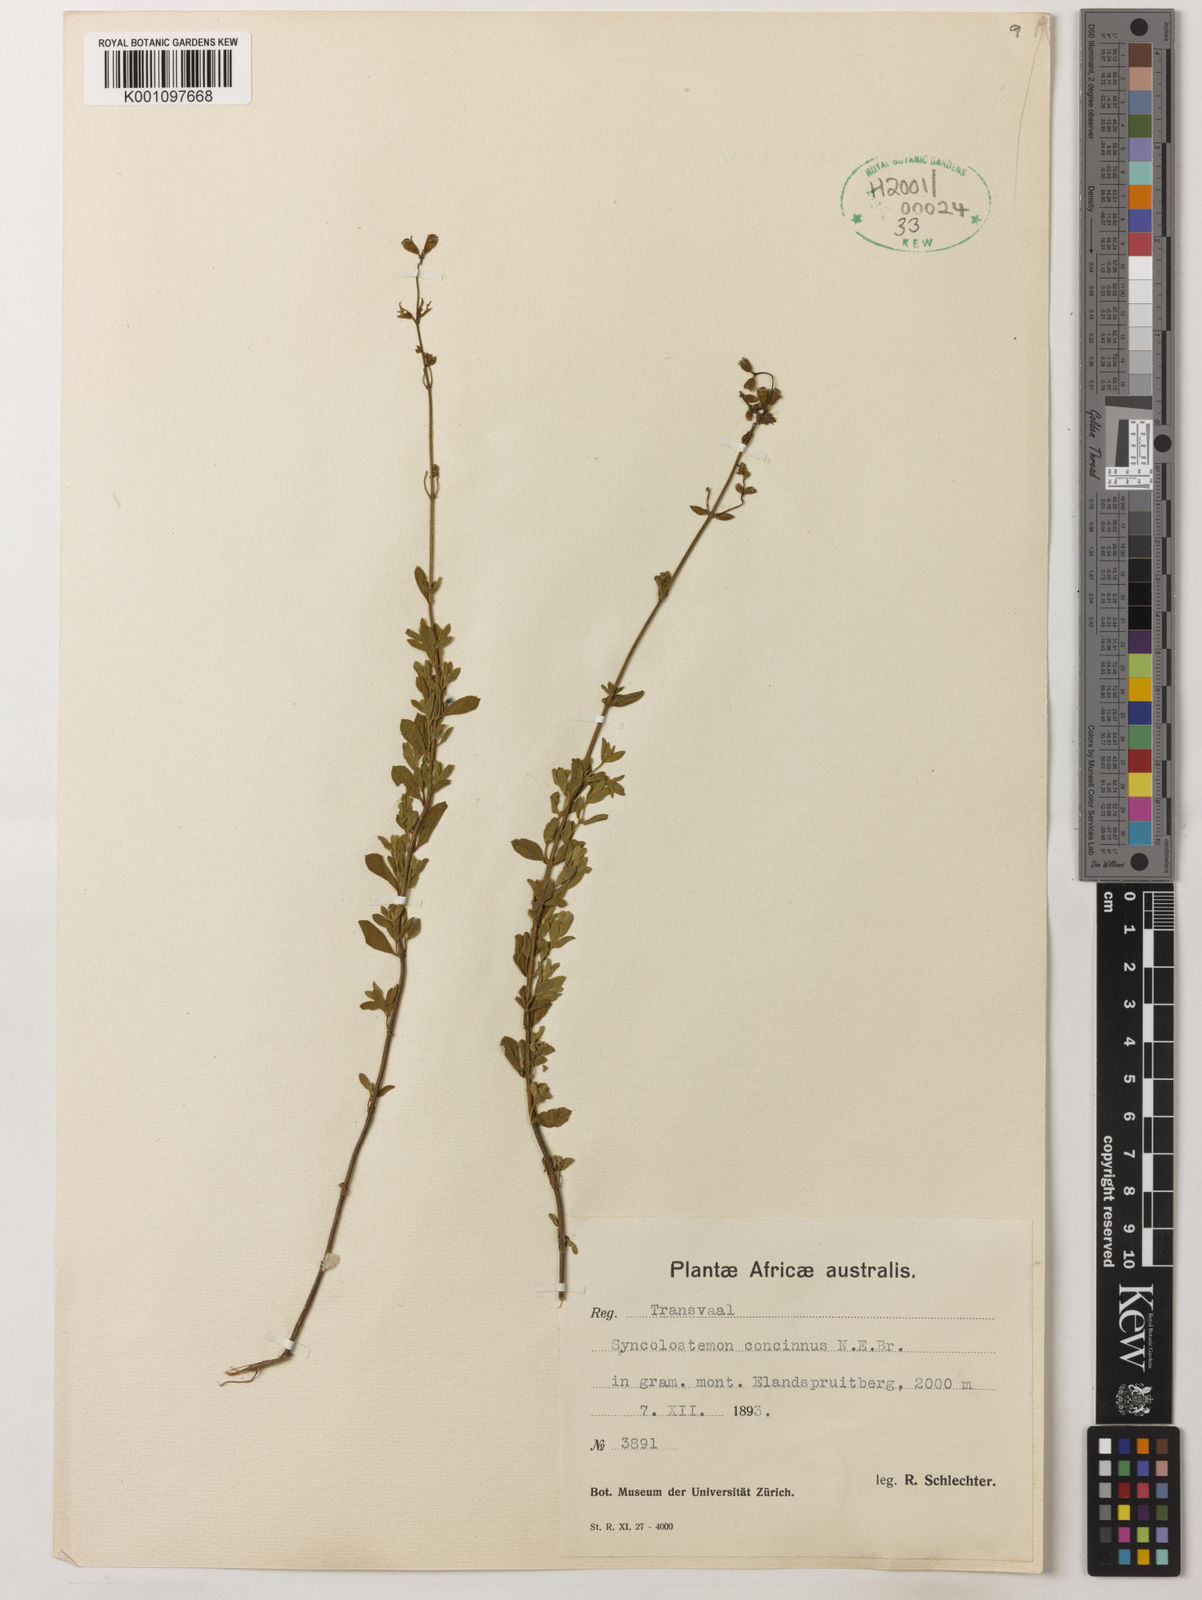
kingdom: Plantae
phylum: Tracheophyta
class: Magnoliopsida
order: Lamiales
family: Lamiaceae
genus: Syncolostemon
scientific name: Syncolostemon concinnus
